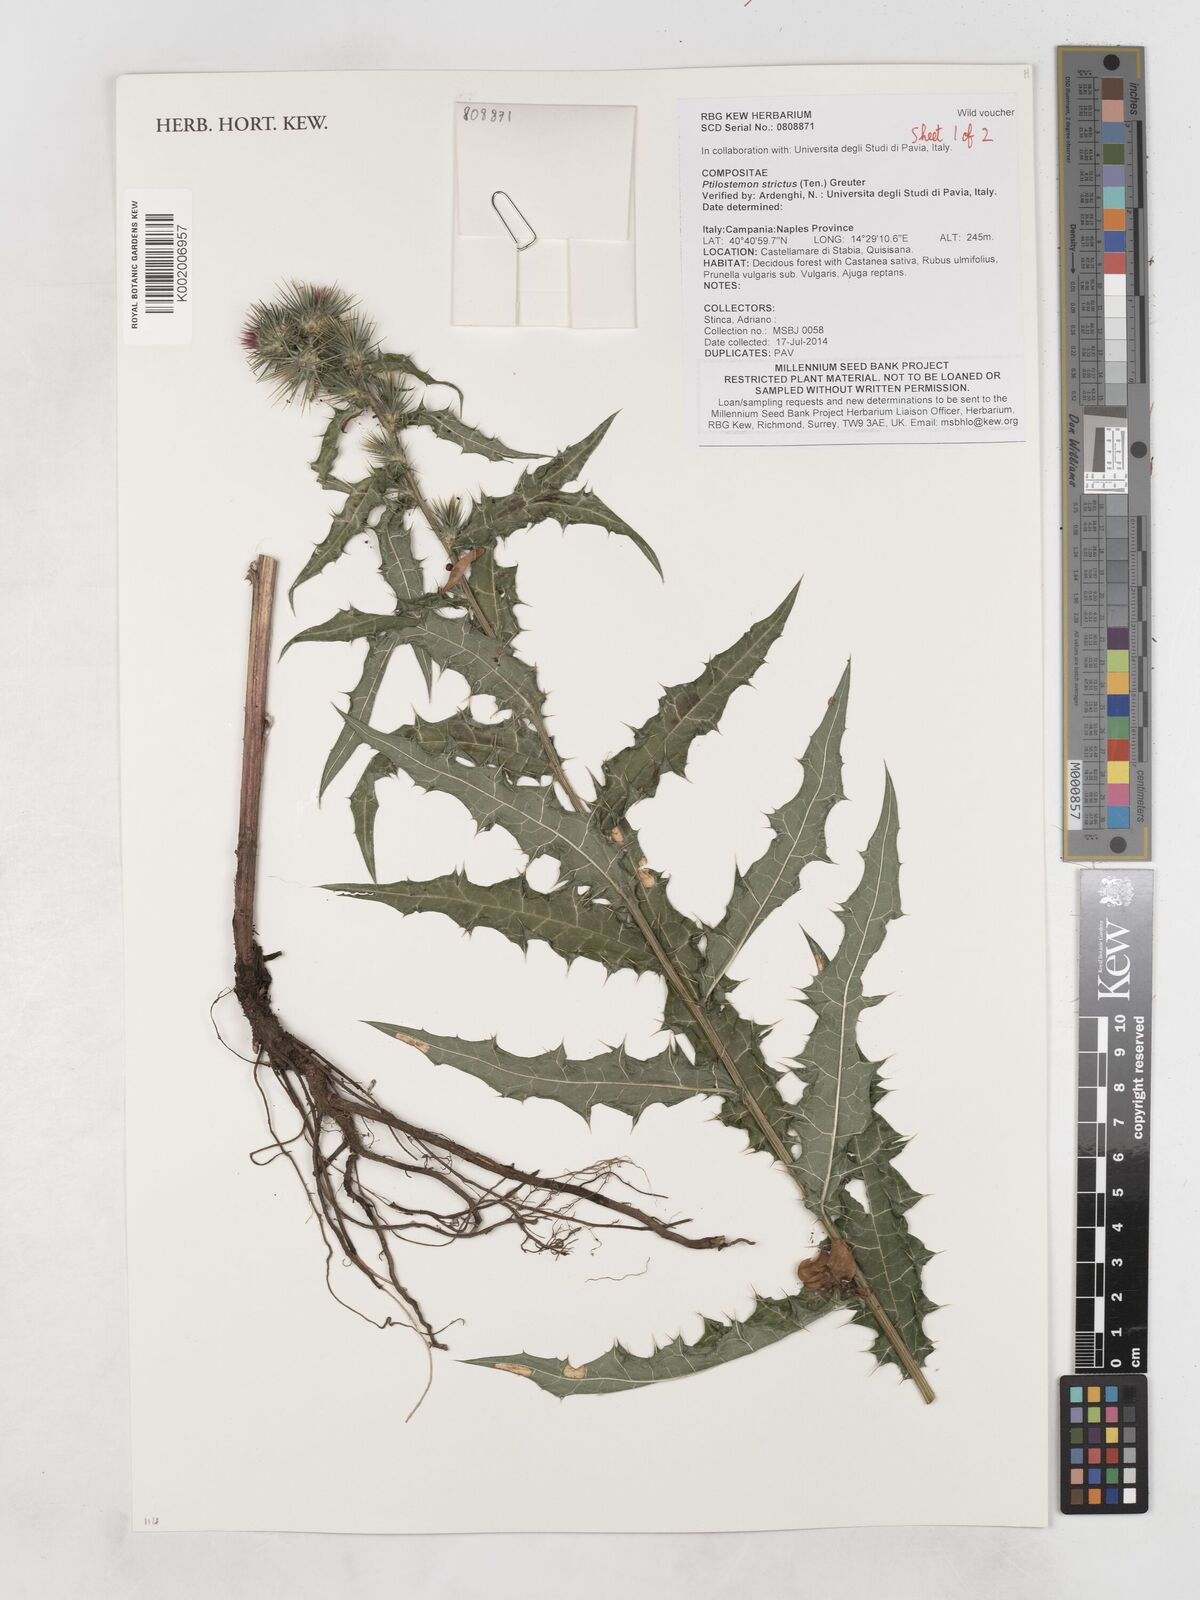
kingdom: Plantae
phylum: Tracheophyta
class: Magnoliopsida
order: Asterales
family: Asteraceae
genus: Ptilostemon
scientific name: Ptilostemon strictus
